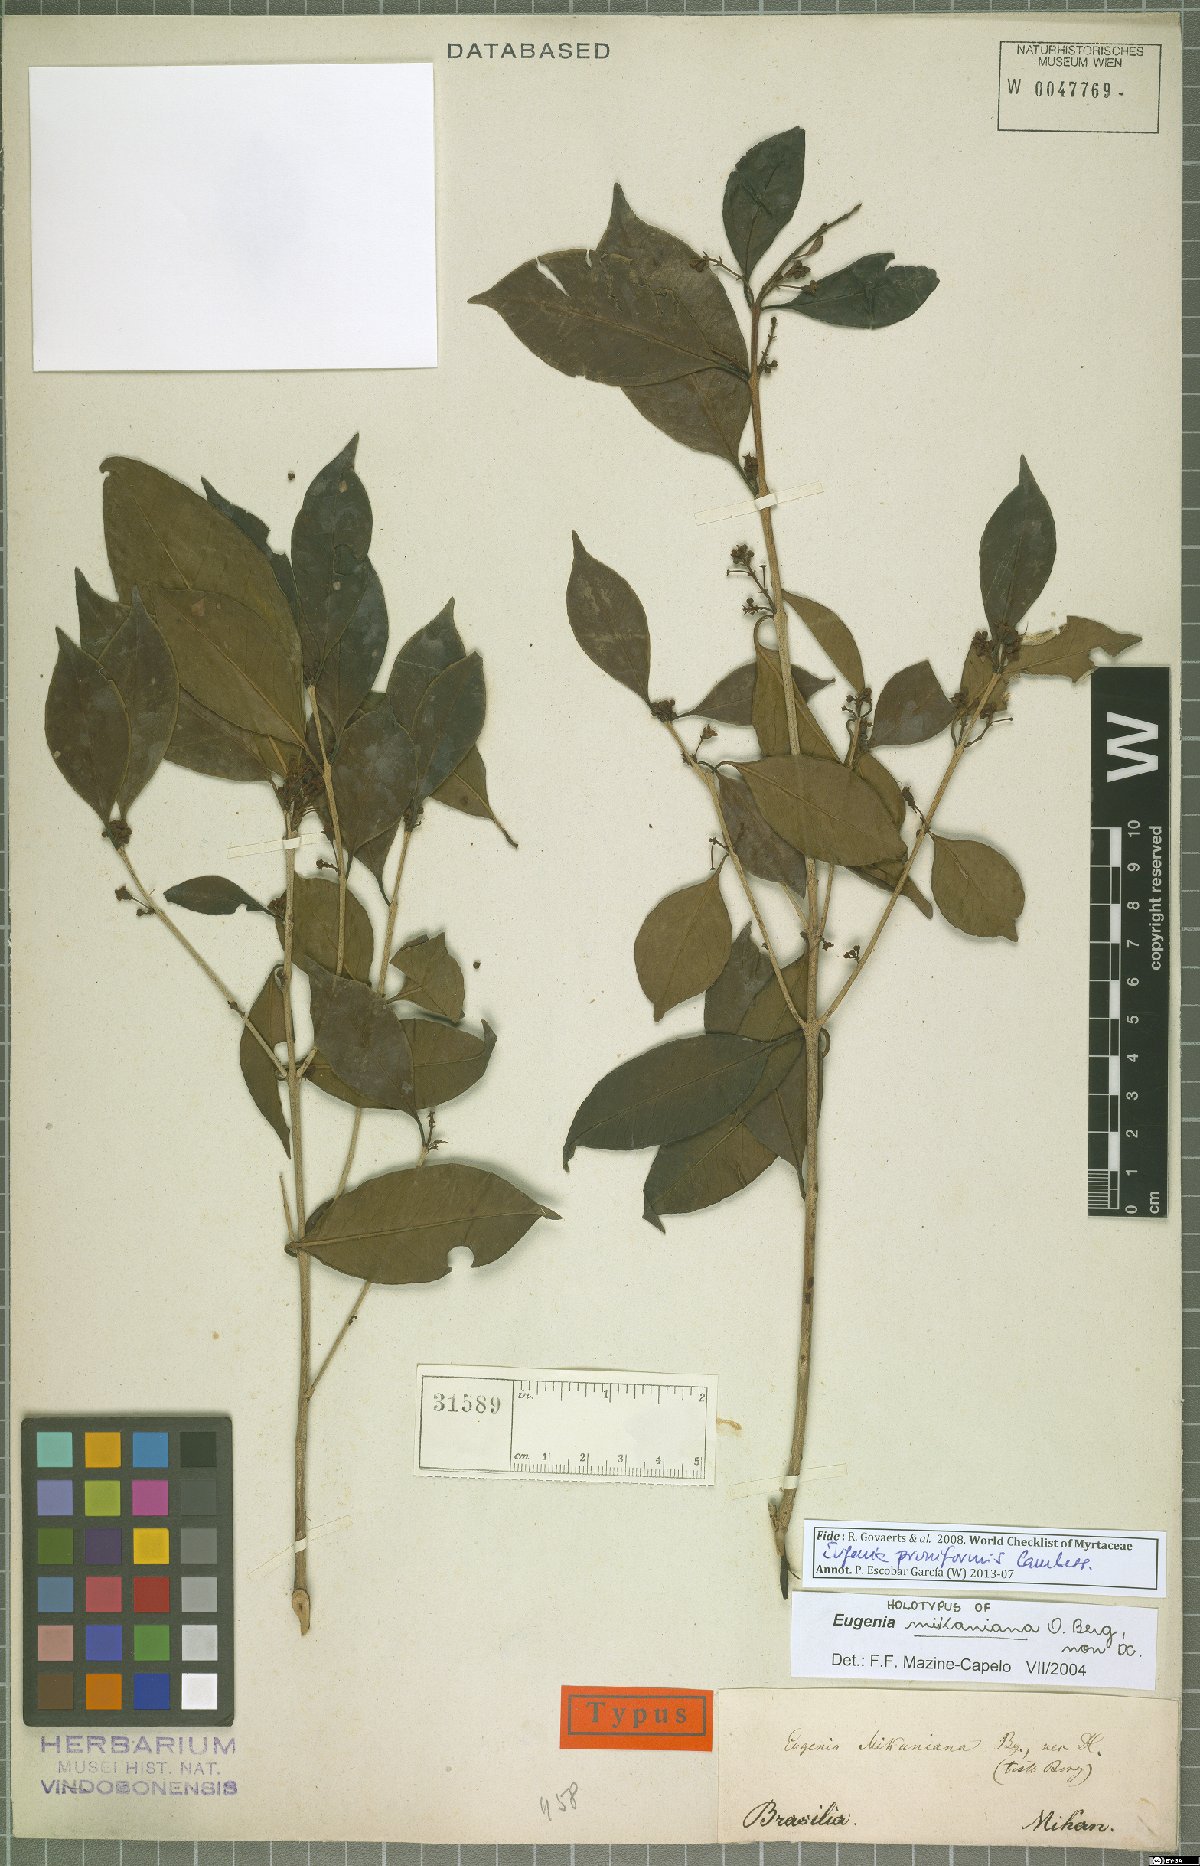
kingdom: Plantae
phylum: Tracheophyta
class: Magnoliopsida
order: Myrtales
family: Myrtaceae
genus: Eugenia
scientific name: Eugenia pruniformis
